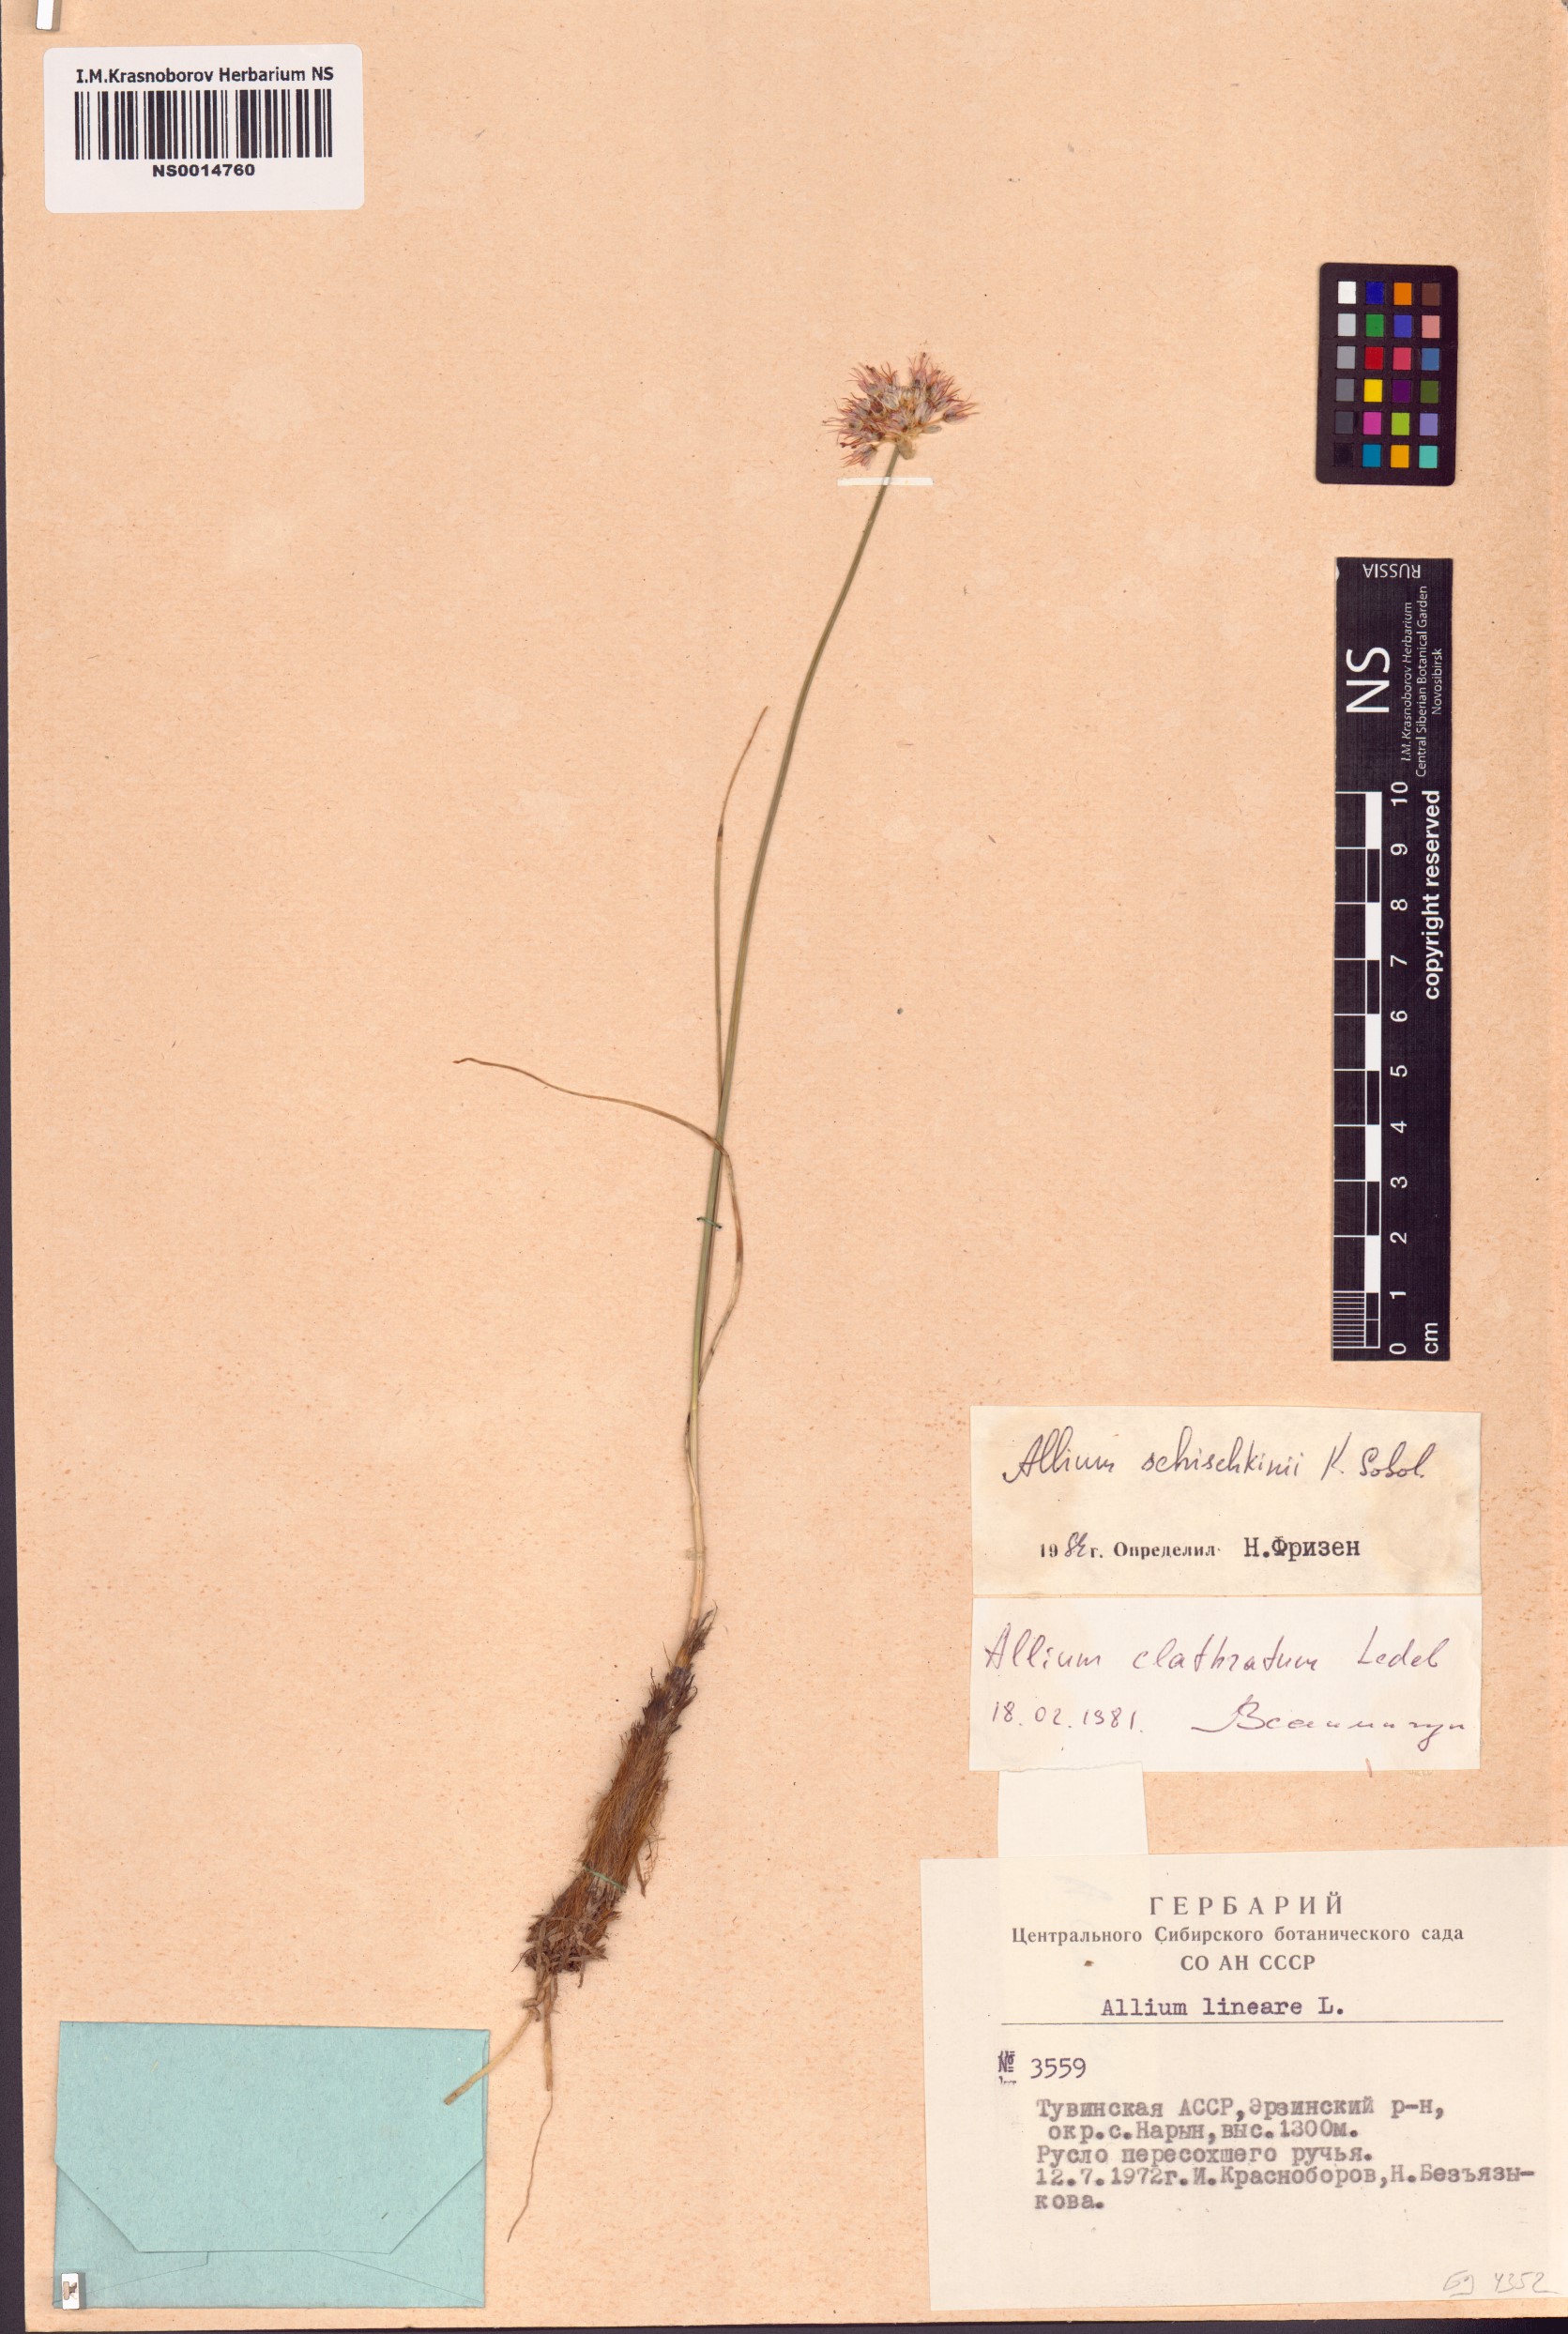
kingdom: Plantae
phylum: Tracheophyta
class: Liliopsida
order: Asparagales
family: Amaryllidaceae
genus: Allium
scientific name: Allium schischkinii
